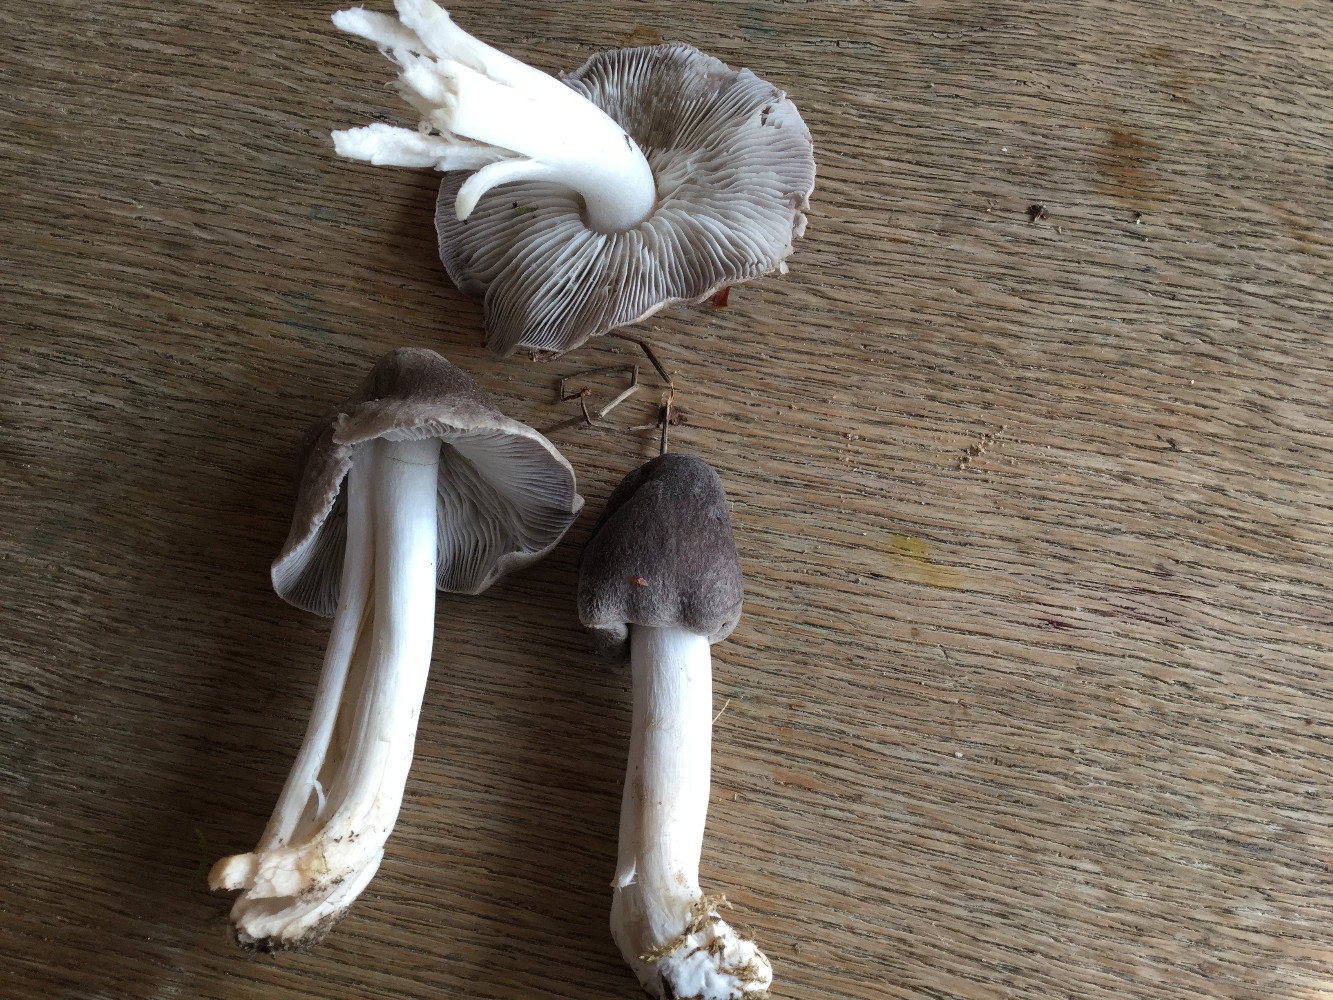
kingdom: Fungi
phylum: Basidiomycota
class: Agaricomycetes
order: Agaricales
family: Tricholomataceae
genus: Tricholoma
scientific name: Tricholoma terreum
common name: jordfarvet ridderhat
